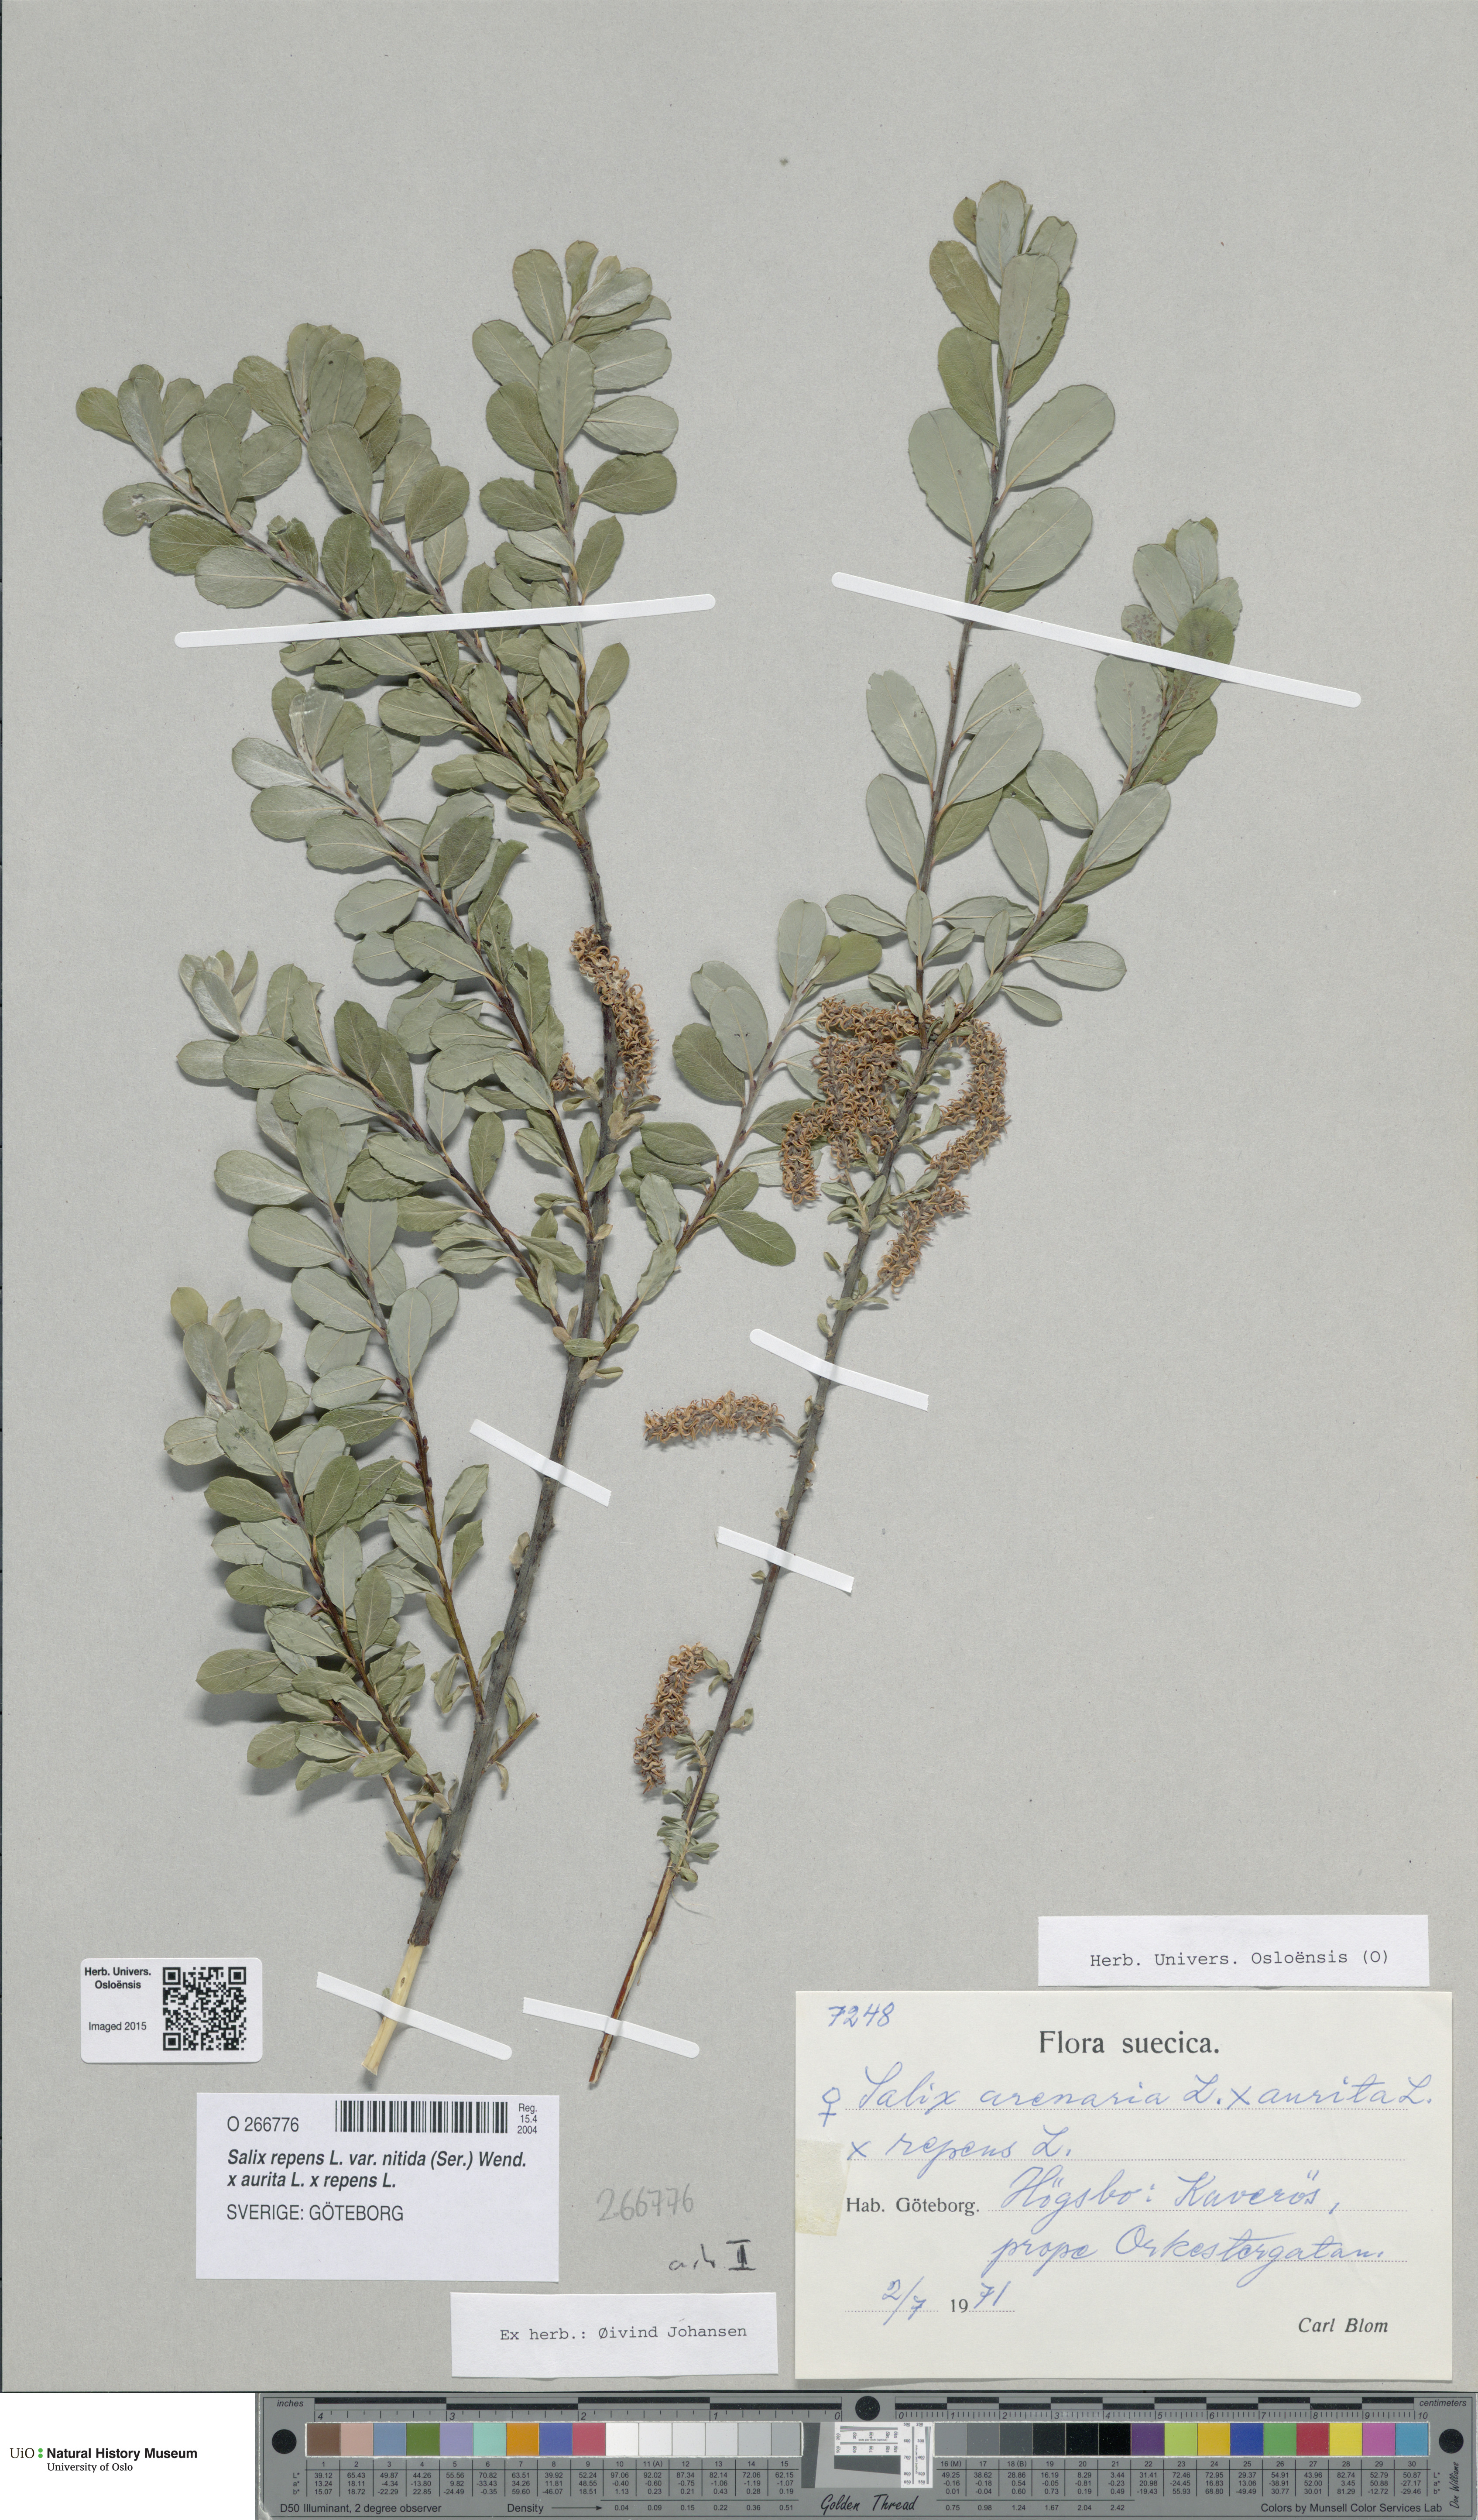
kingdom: Plantae
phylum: Tracheophyta
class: Magnoliopsida
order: Malpighiales
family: Salicaceae
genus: Salix
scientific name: Salix
